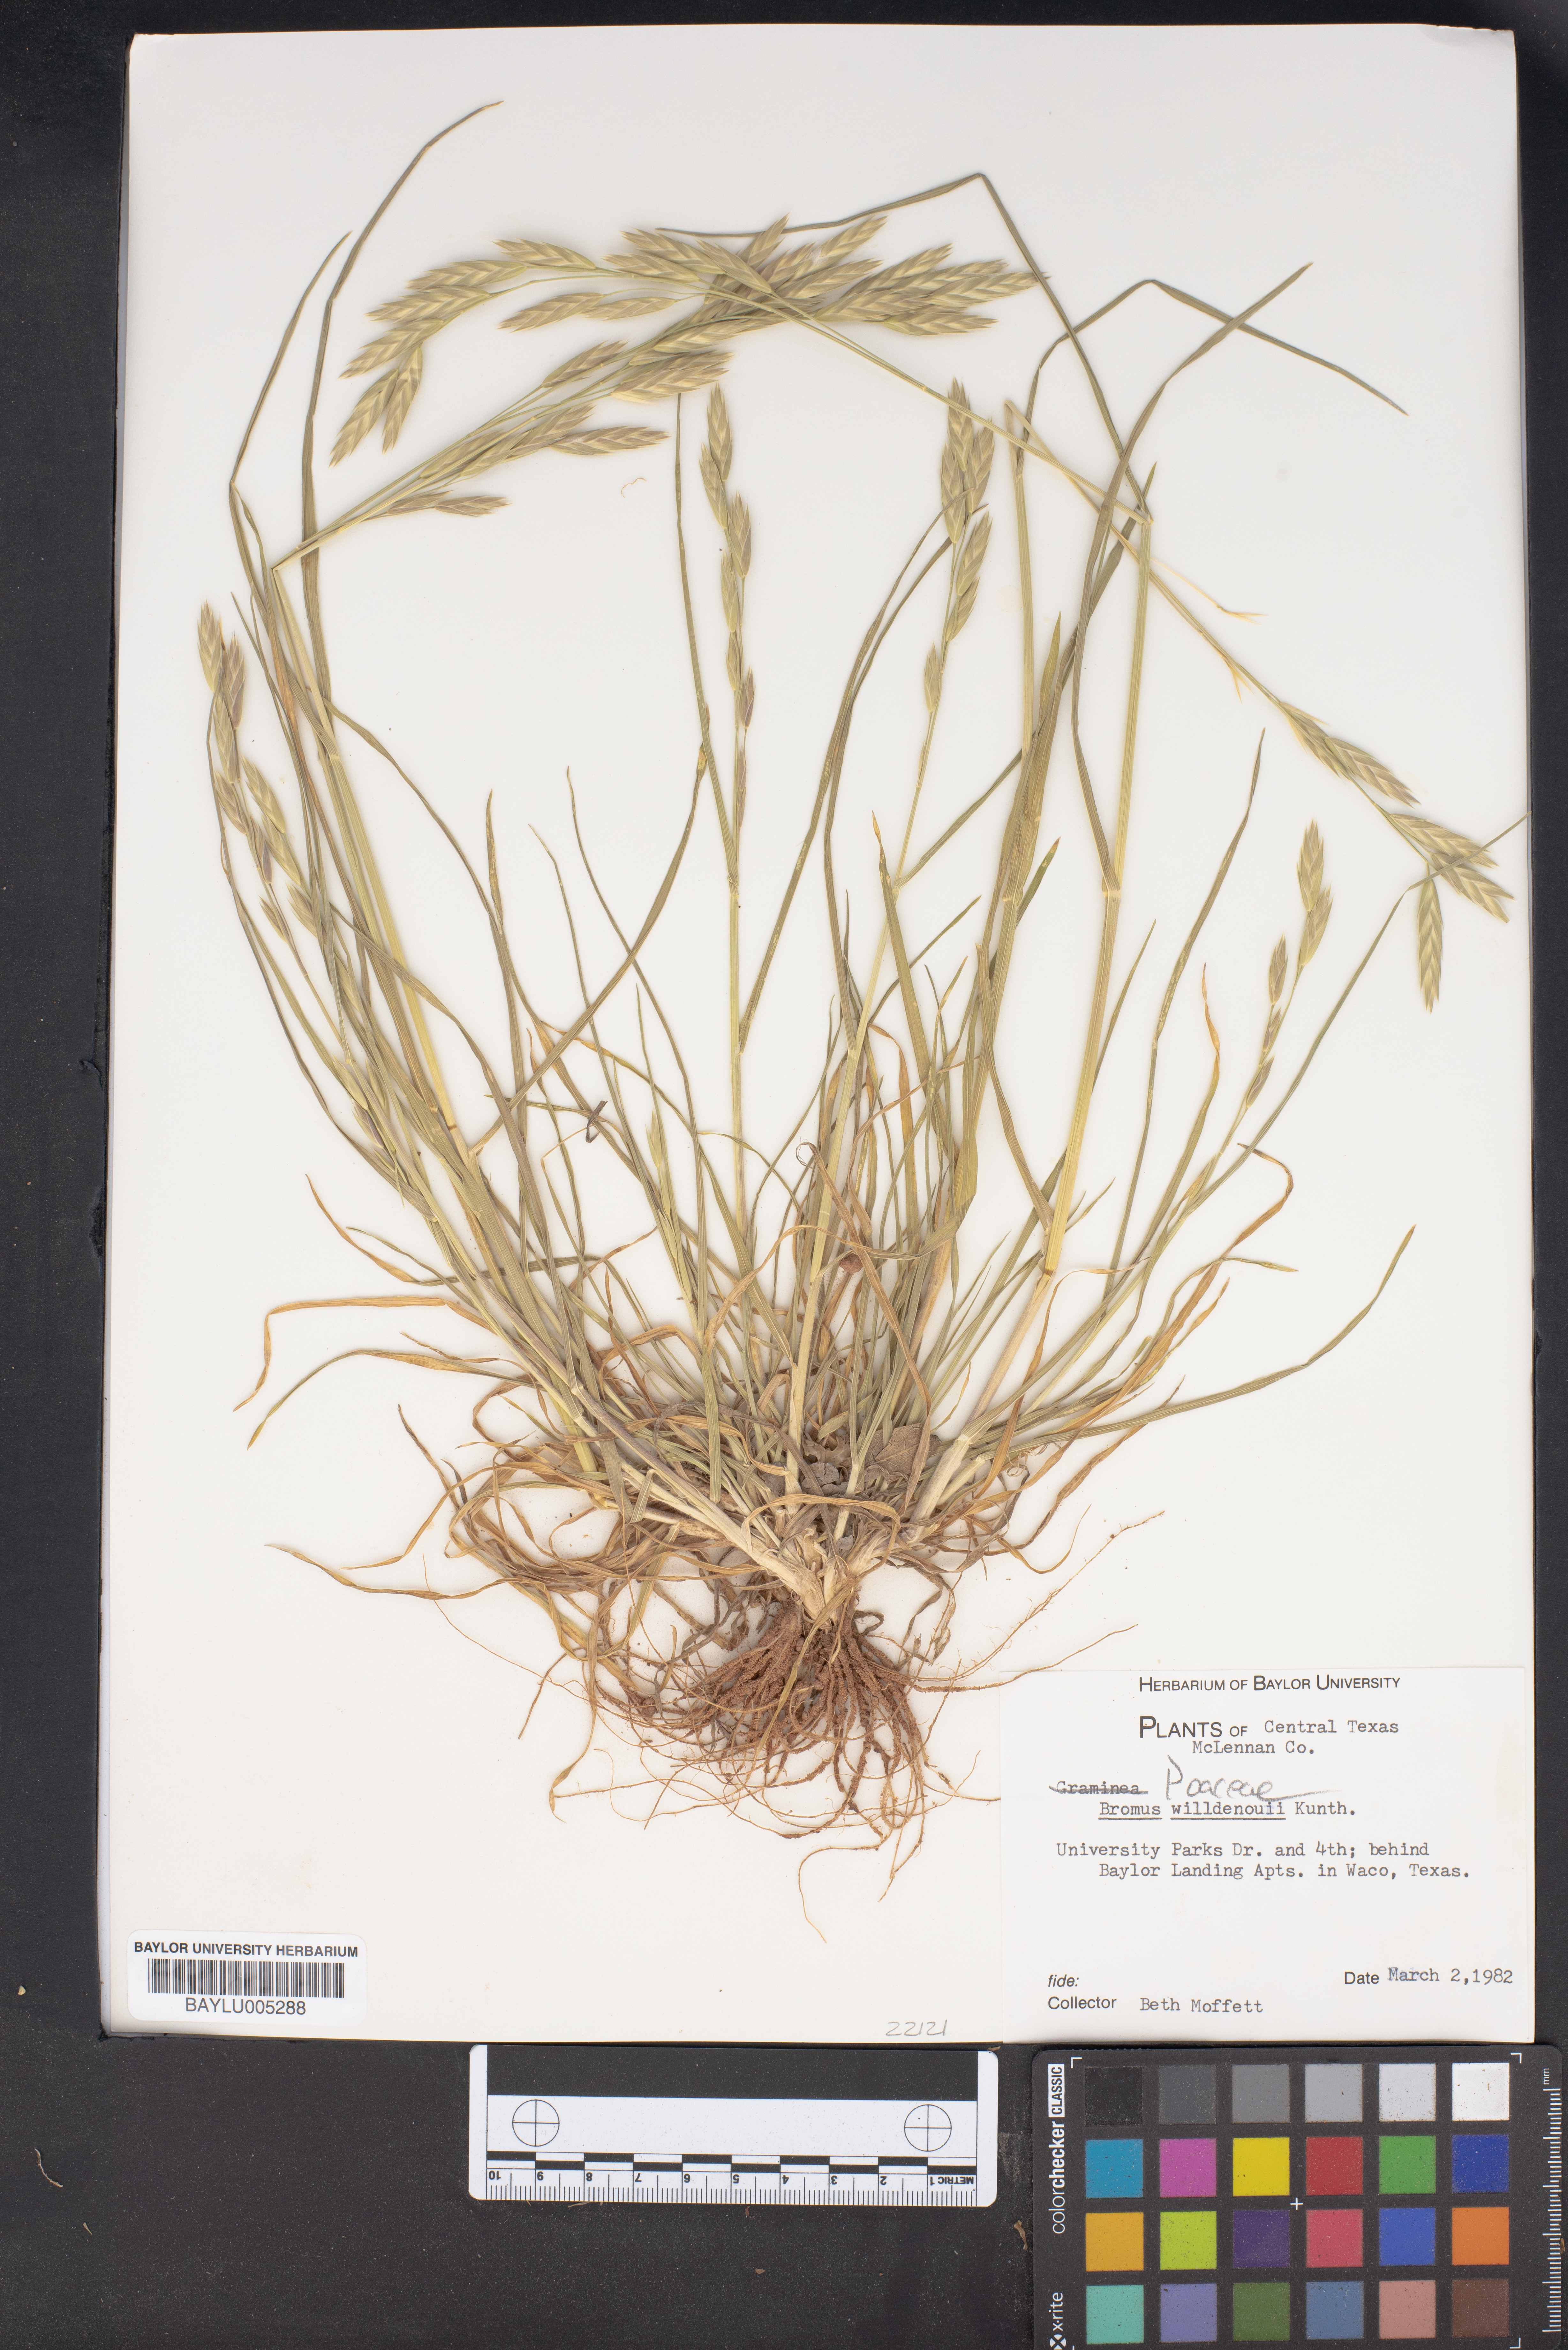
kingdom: Plantae
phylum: Tracheophyta
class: Liliopsida
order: Poales
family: Poaceae
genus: Bromus
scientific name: Bromus catharticus
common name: Rescuegrass
